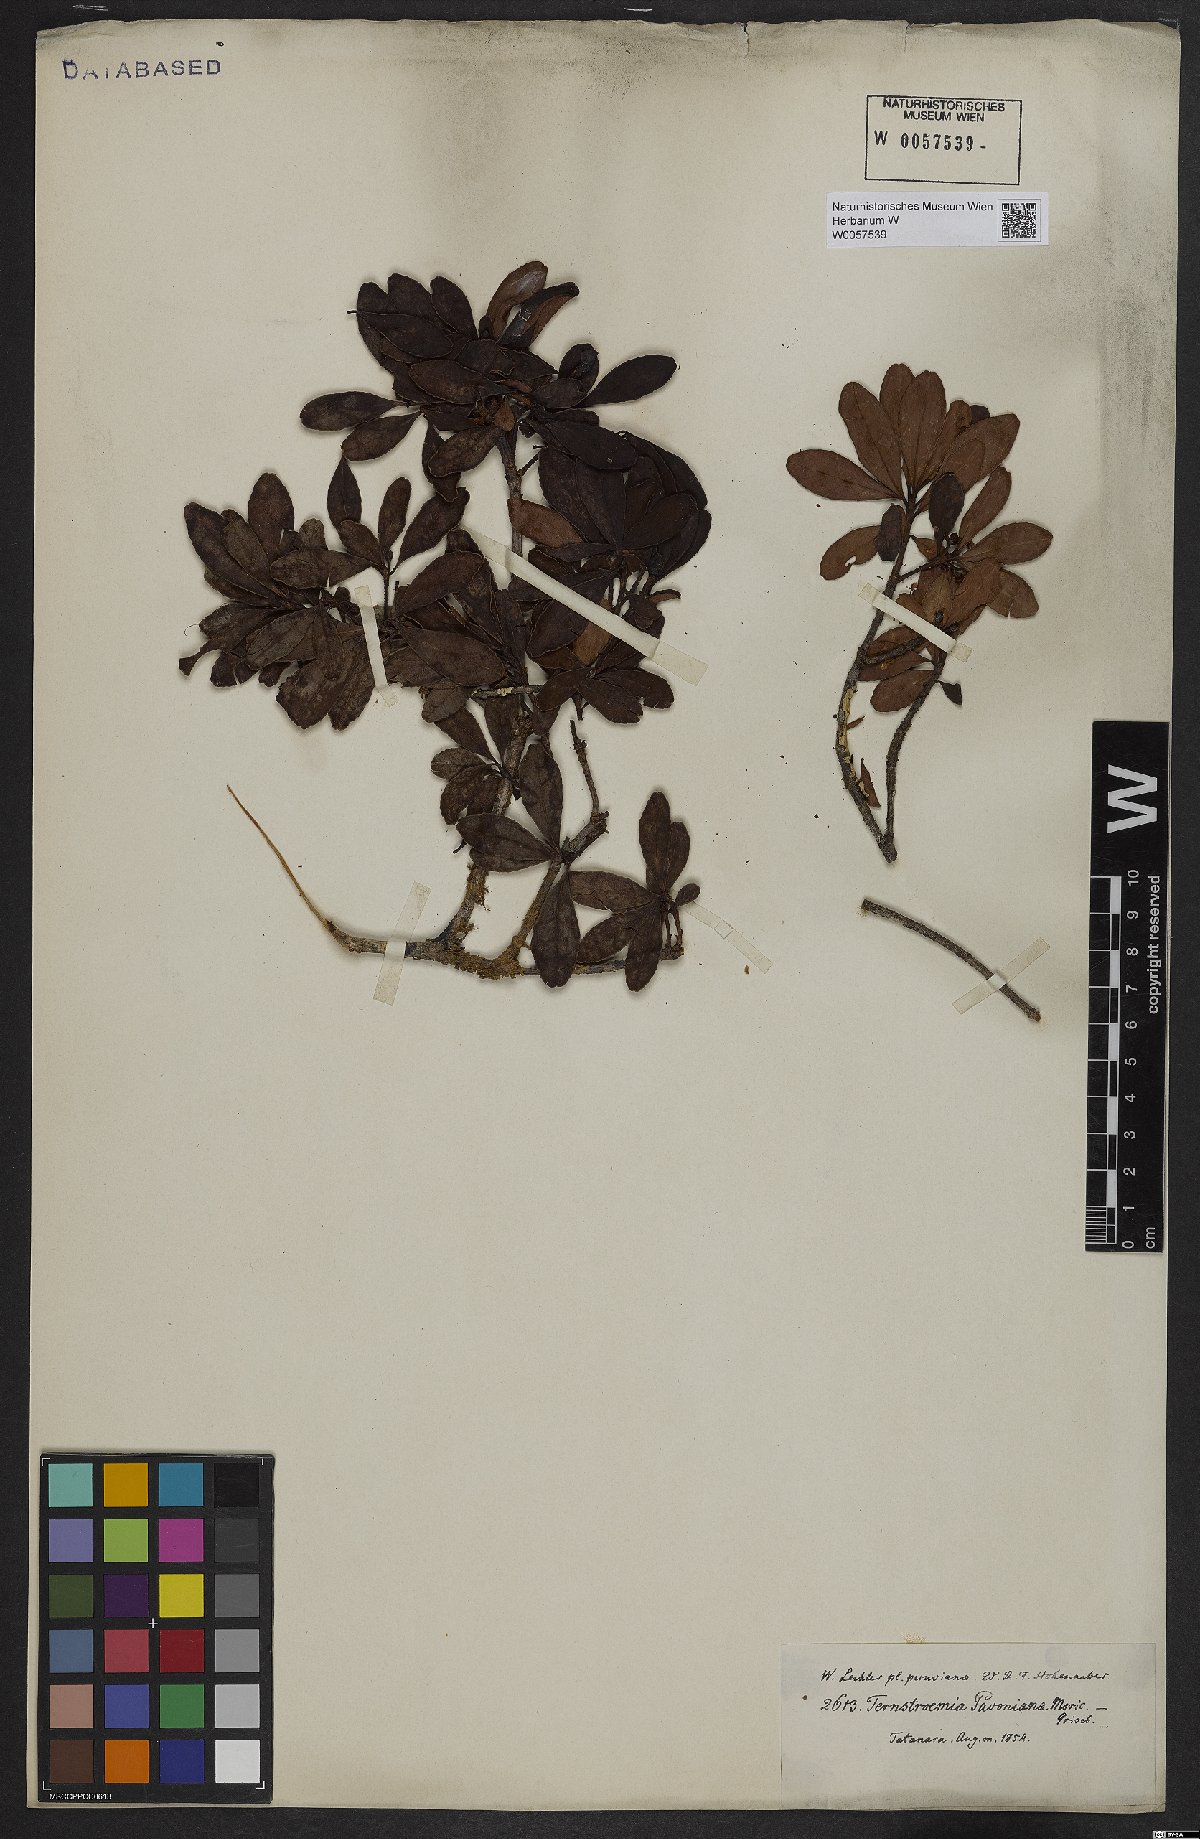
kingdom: Plantae
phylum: Tracheophyta
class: Magnoliopsida
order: Ericales
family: Pentaphylacaceae
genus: Ternstroemia
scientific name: Ternstroemia brachypoda
